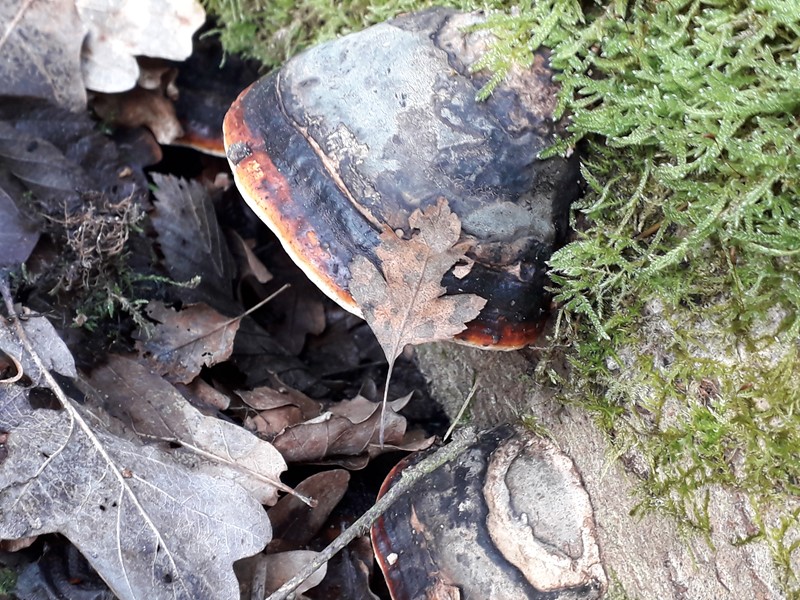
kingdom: Fungi
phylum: Basidiomycota
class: Agaricomycetes
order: Polyporales
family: Fomitopsidaceae
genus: Fomitopsis
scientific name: Fomitopsis pinicola
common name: randbæltet hovporesvamp
